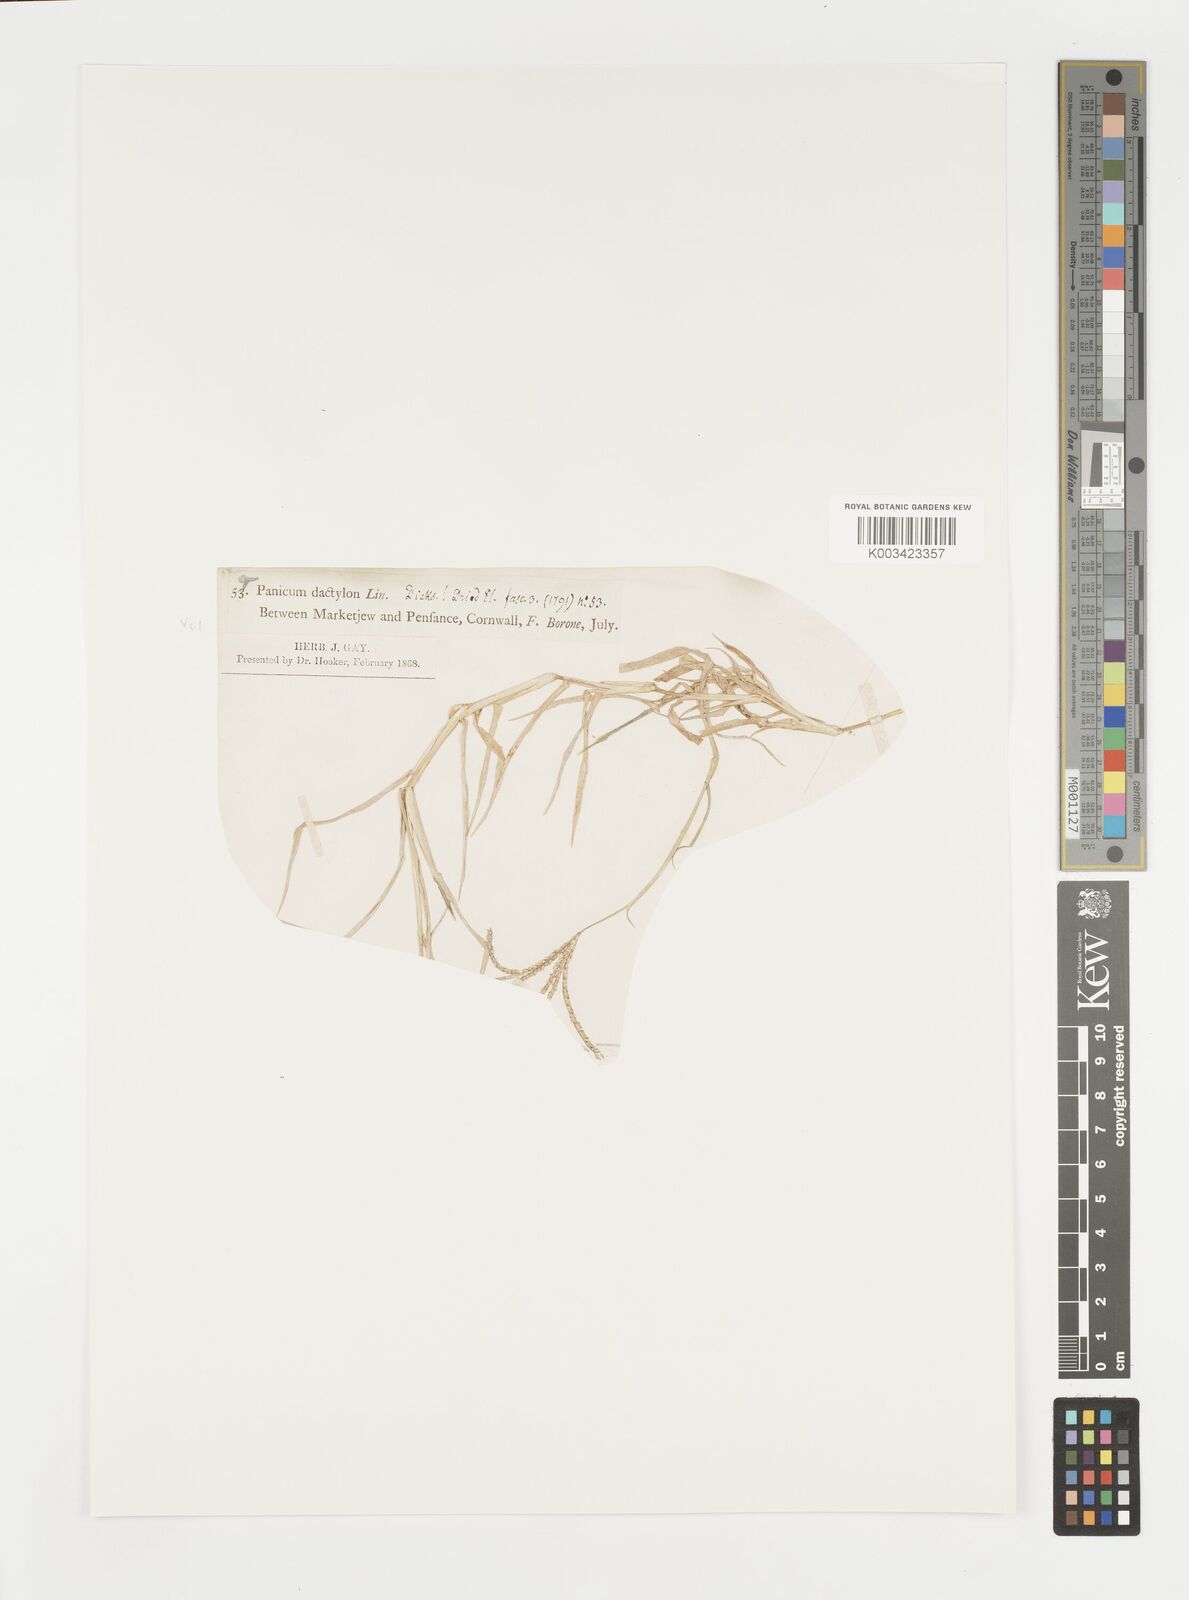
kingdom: Plantae
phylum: Tracheophyta
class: Liliopsida
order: Poales
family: Poaceae
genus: Cynodon
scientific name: Cynodon dactylon
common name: Bermuda grass
